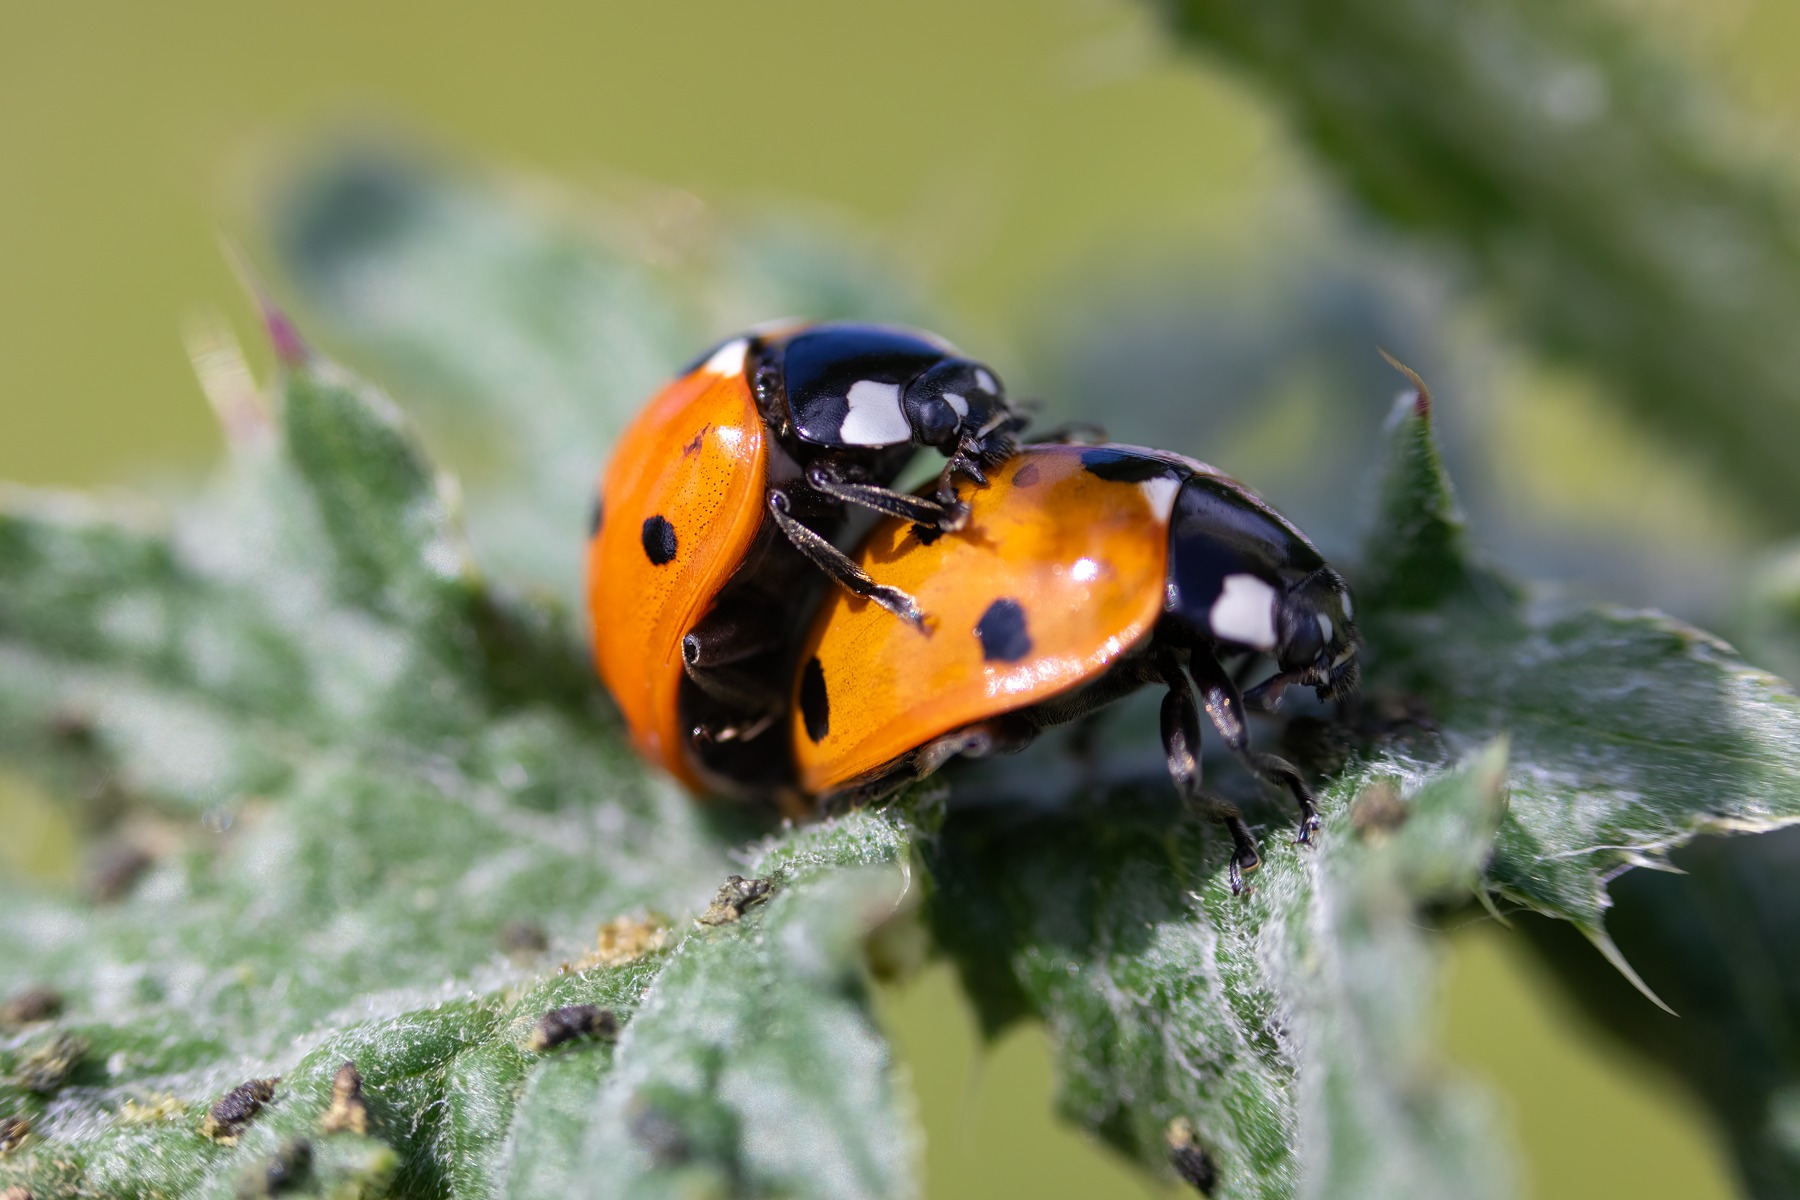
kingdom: Animalia
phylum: Arthropoda
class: Insecta
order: Coleoptera
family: Coccinellidae
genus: Coccinella
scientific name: Coccinella septempunctata
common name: Syvplettet mariehøne
